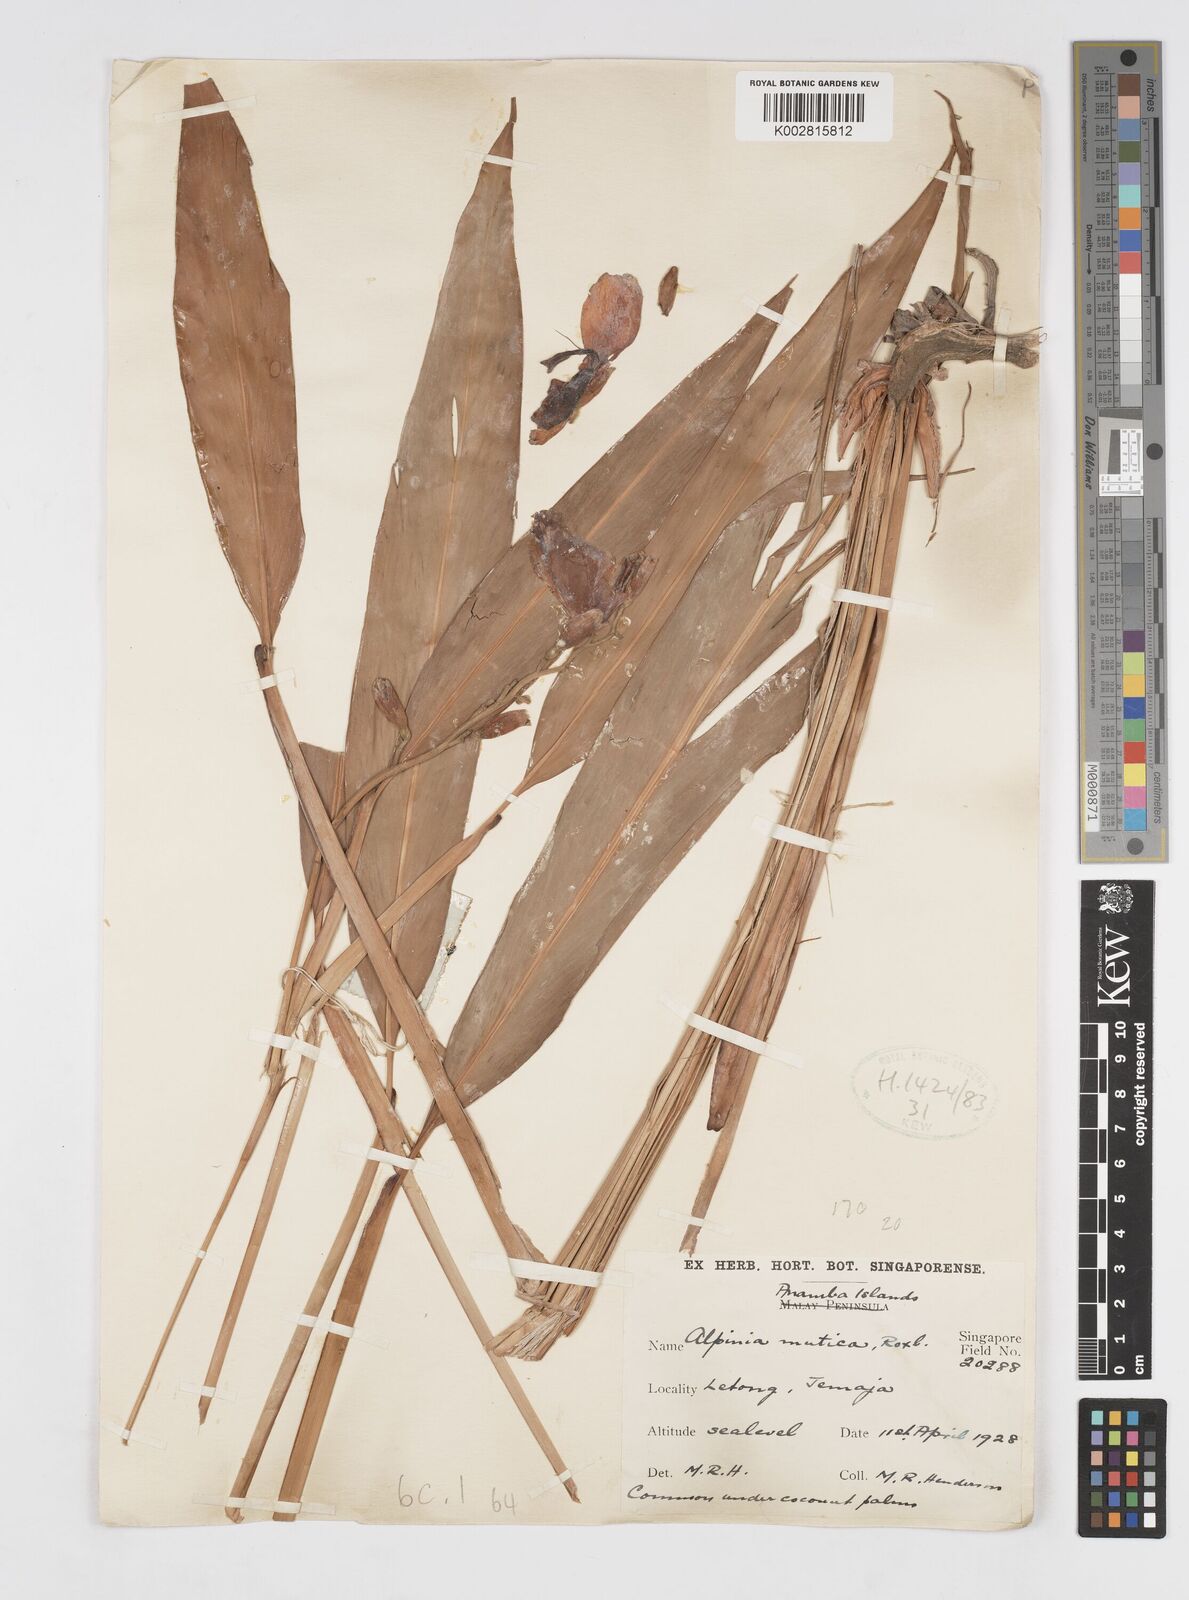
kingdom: Plantae
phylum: Tracheophyta
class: Liliopsida
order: Zingiberales
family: Zingiberaceae
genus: Alpinia
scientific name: Alpinia assimilis
